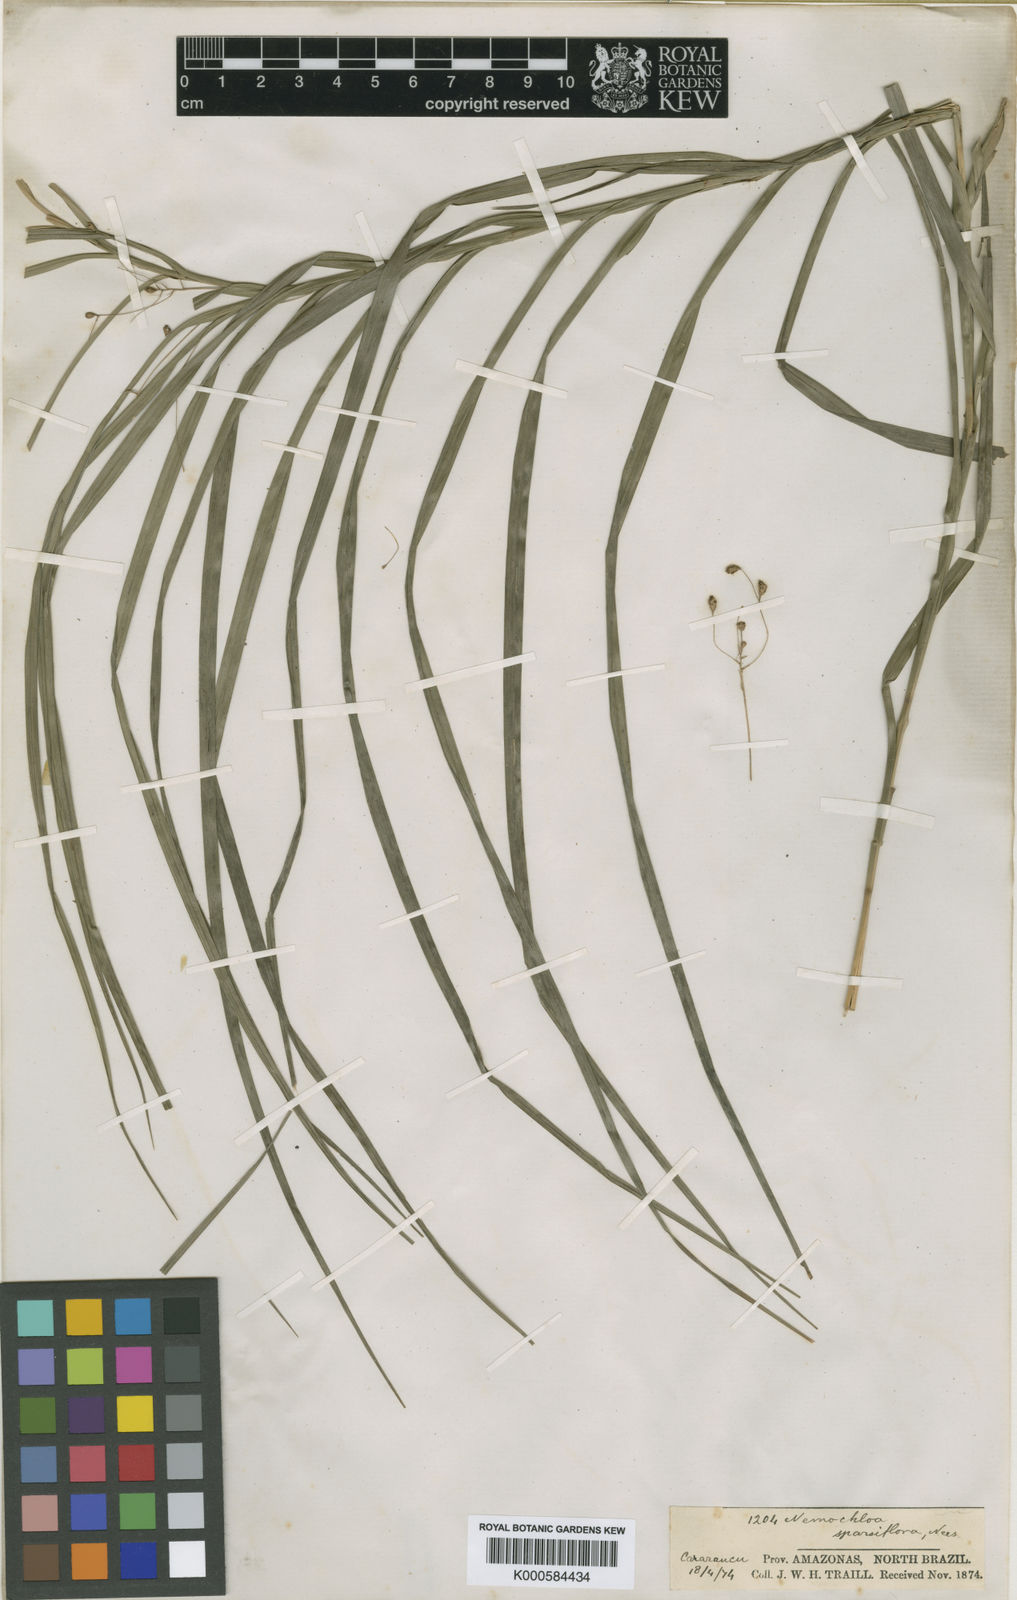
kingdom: Plantae
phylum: Tracheophyta
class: Liliopsida
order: Poales
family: Cyperaceae
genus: Rhynchospora
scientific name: Rhynchospora sparsiflora
